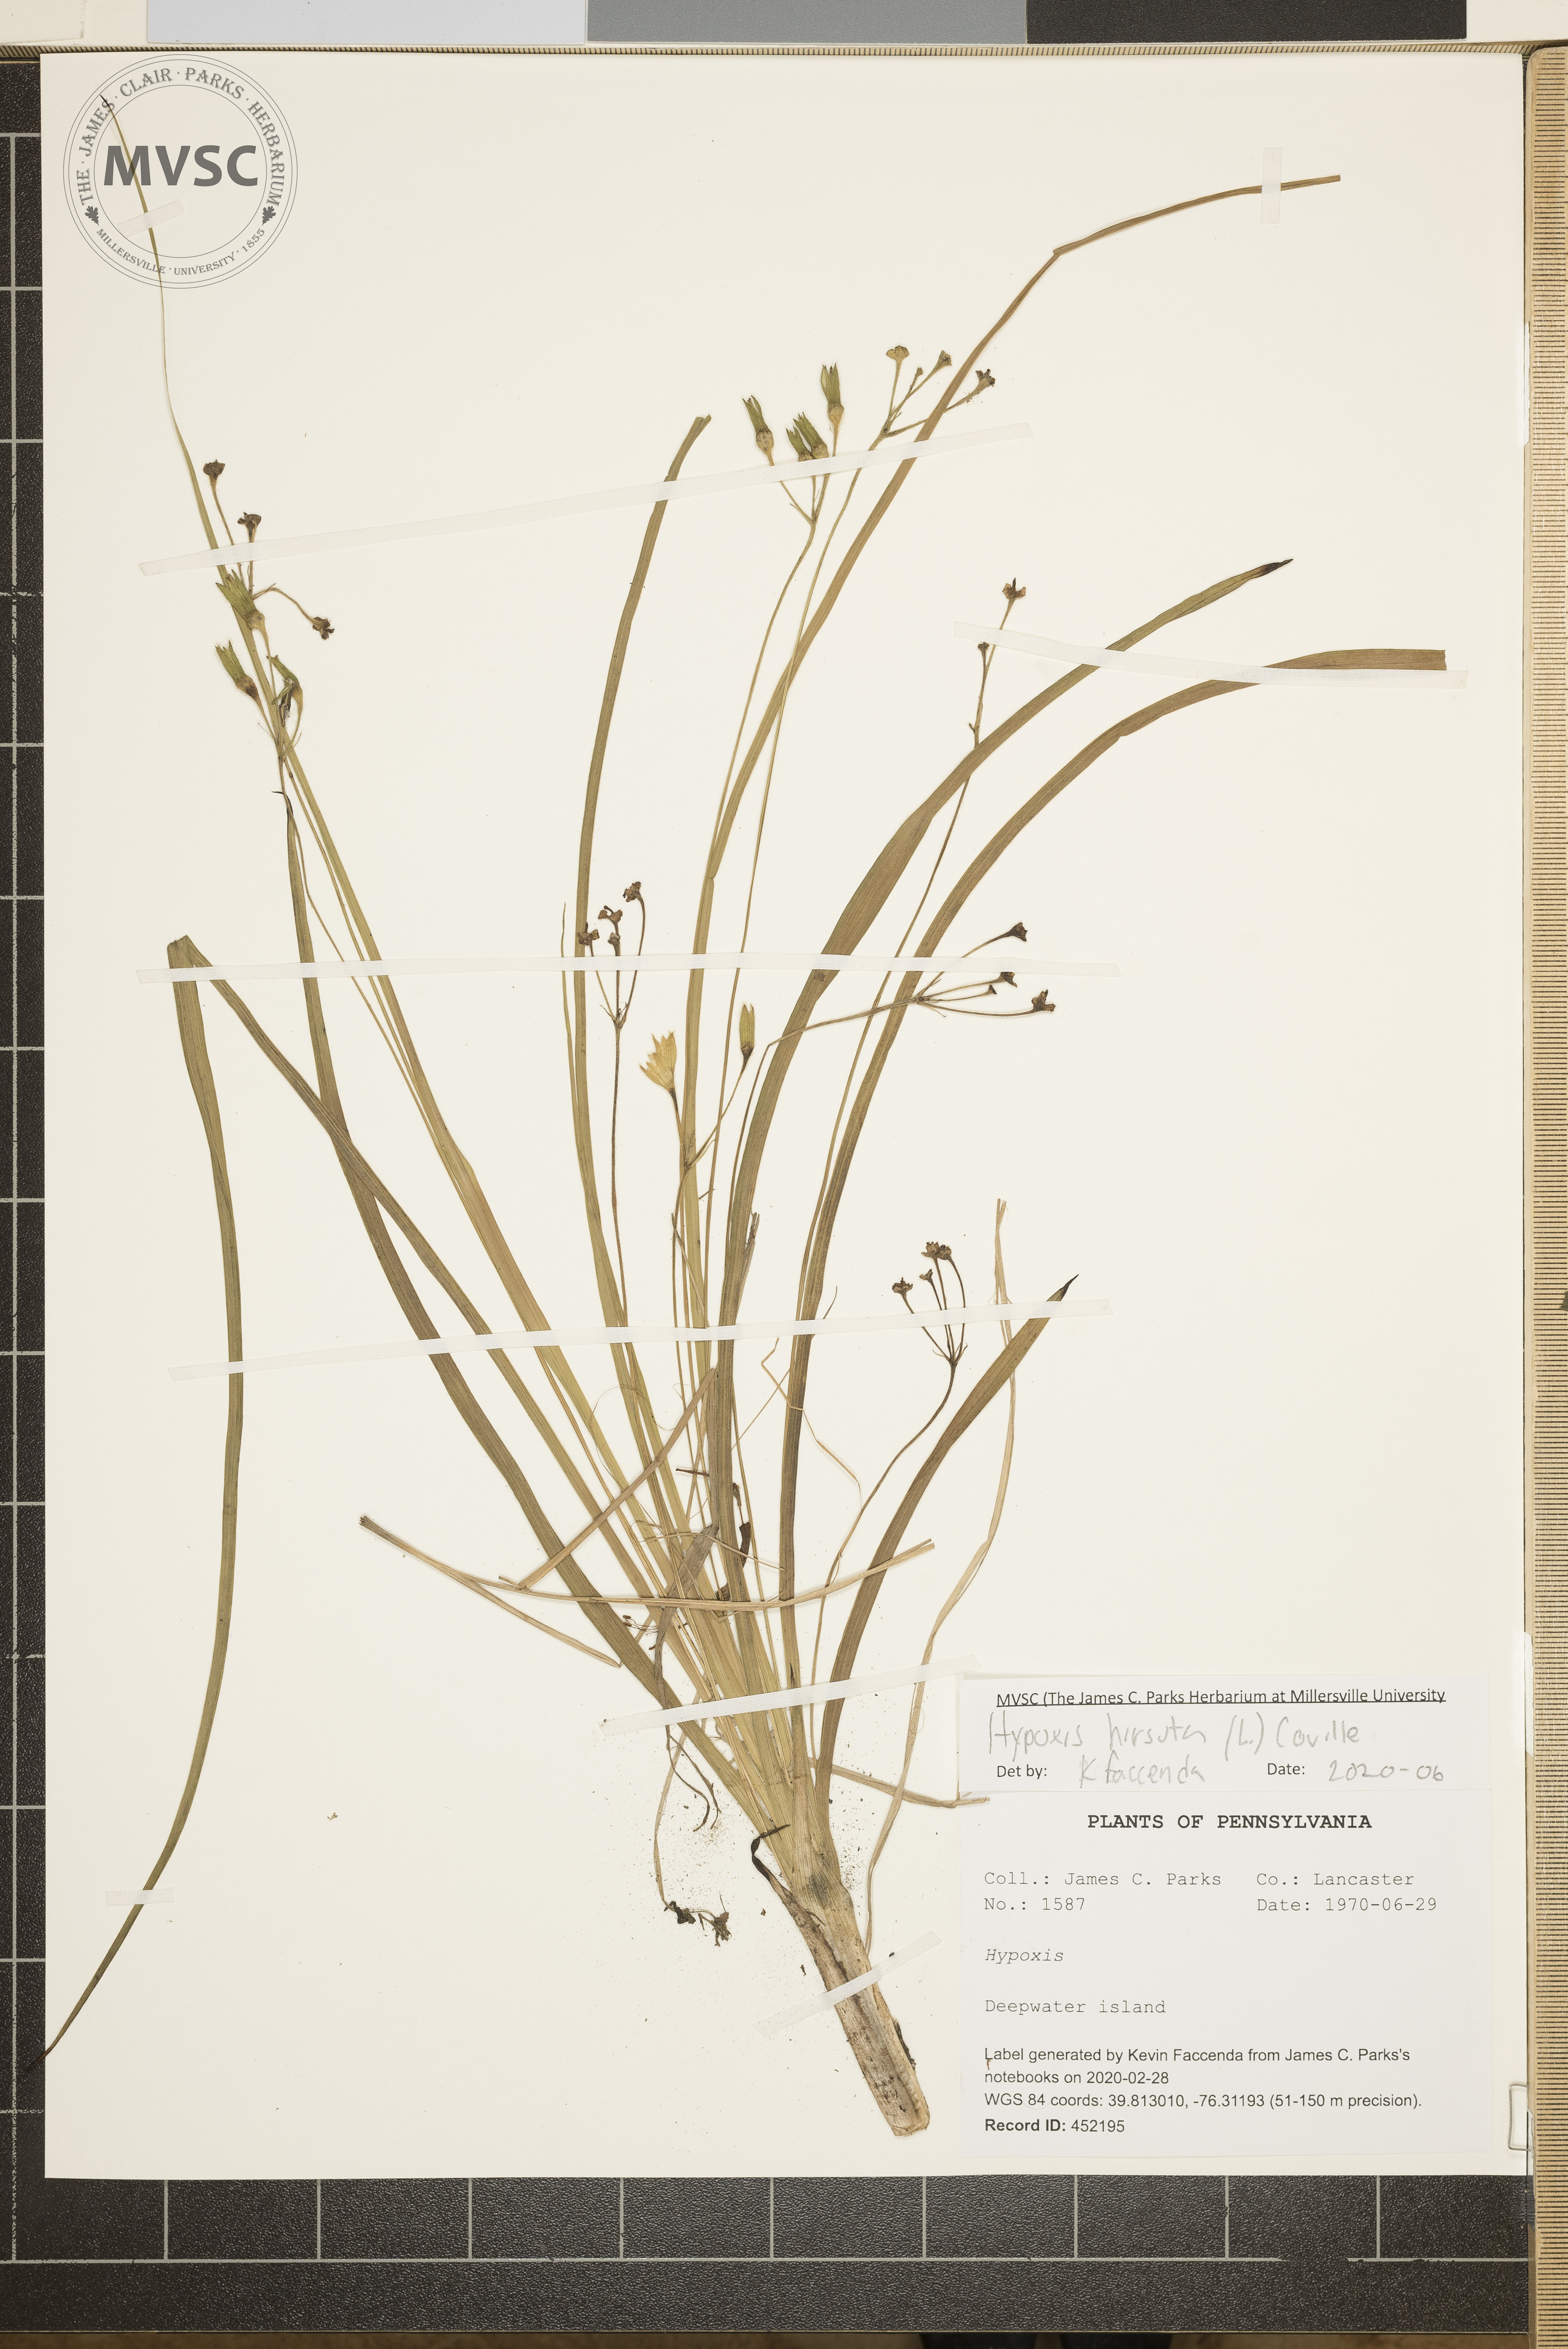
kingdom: Plantae
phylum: Tracheophyta
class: Liliopsida
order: Asparagales
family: Hypoxidaceae
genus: Hypoxis
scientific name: Hypoxis hirsuta
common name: Common goldstar
